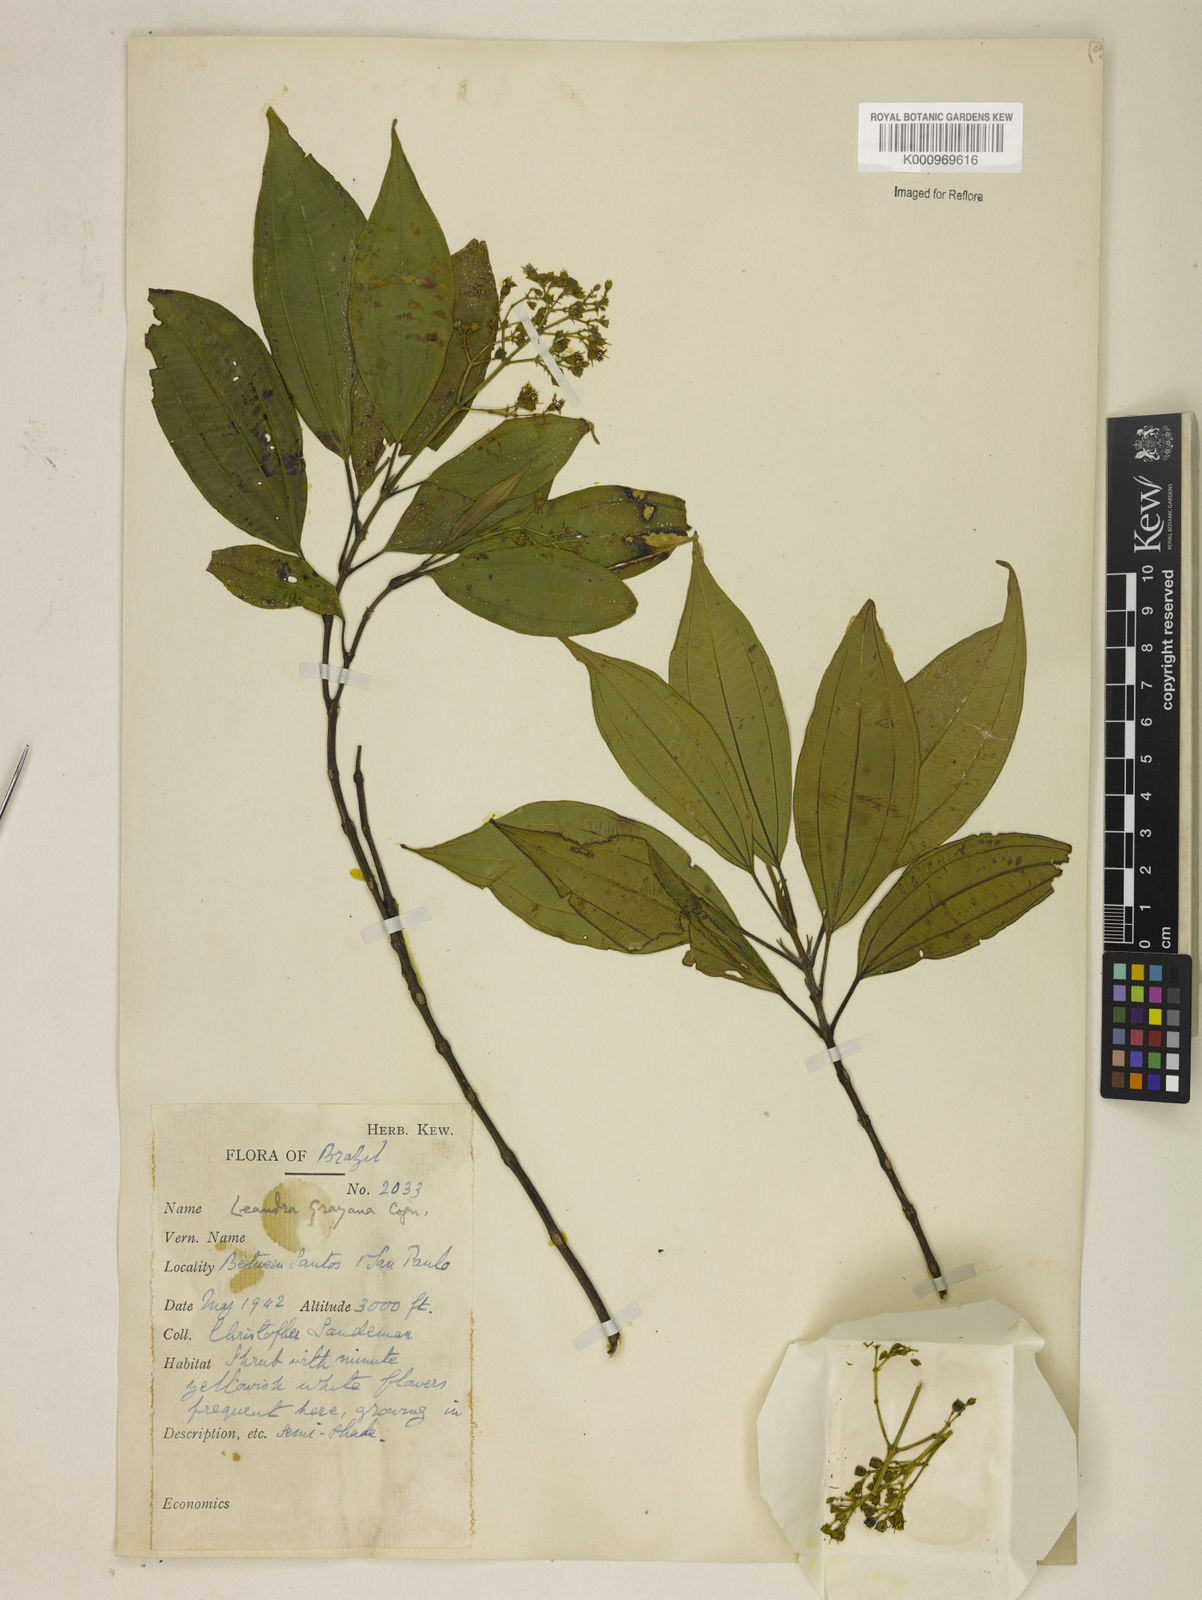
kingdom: Plantae
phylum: Tracheophyta
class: Magnoliopsida
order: Myrtales
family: Melastomataceae
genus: Miconia
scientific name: Miconia leagrayana
